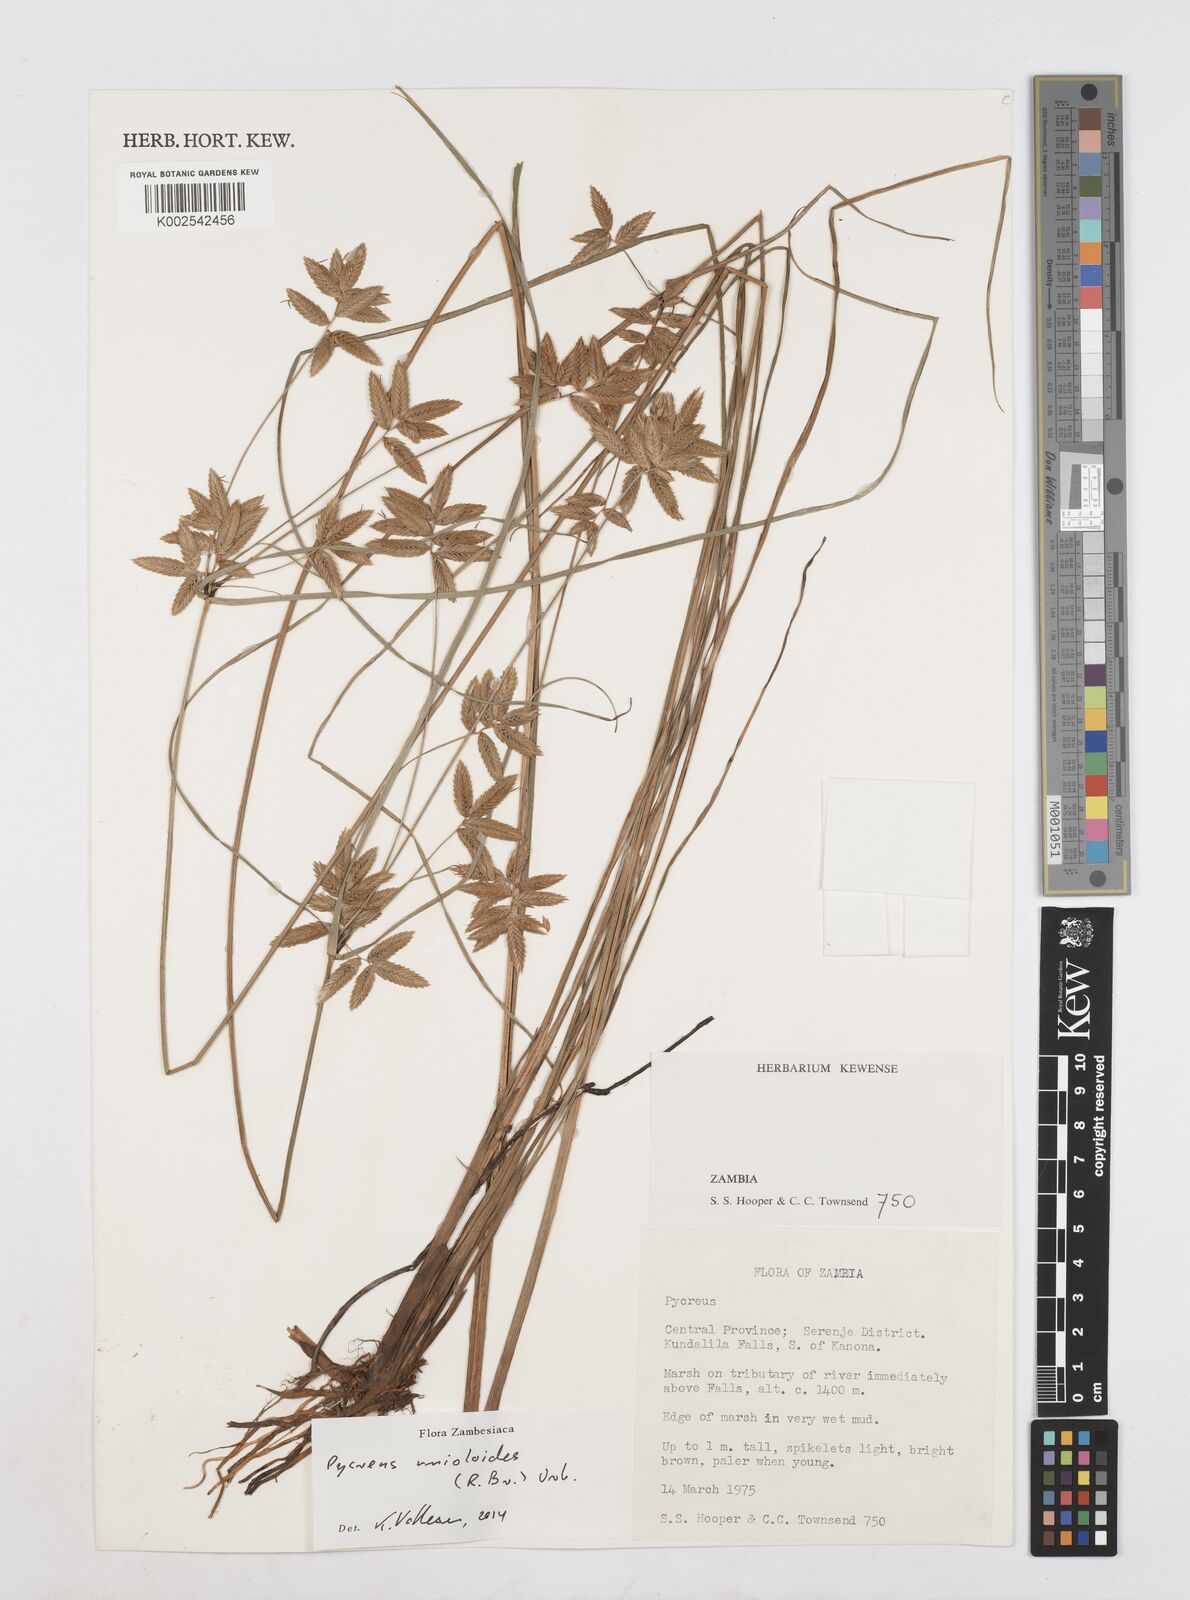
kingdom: Plantae
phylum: Tracheophyta
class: Liliopsida
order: Poales
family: Cyperaceae
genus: Cyperus
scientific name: Cyperus unioloides
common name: Uniola flatsedge
